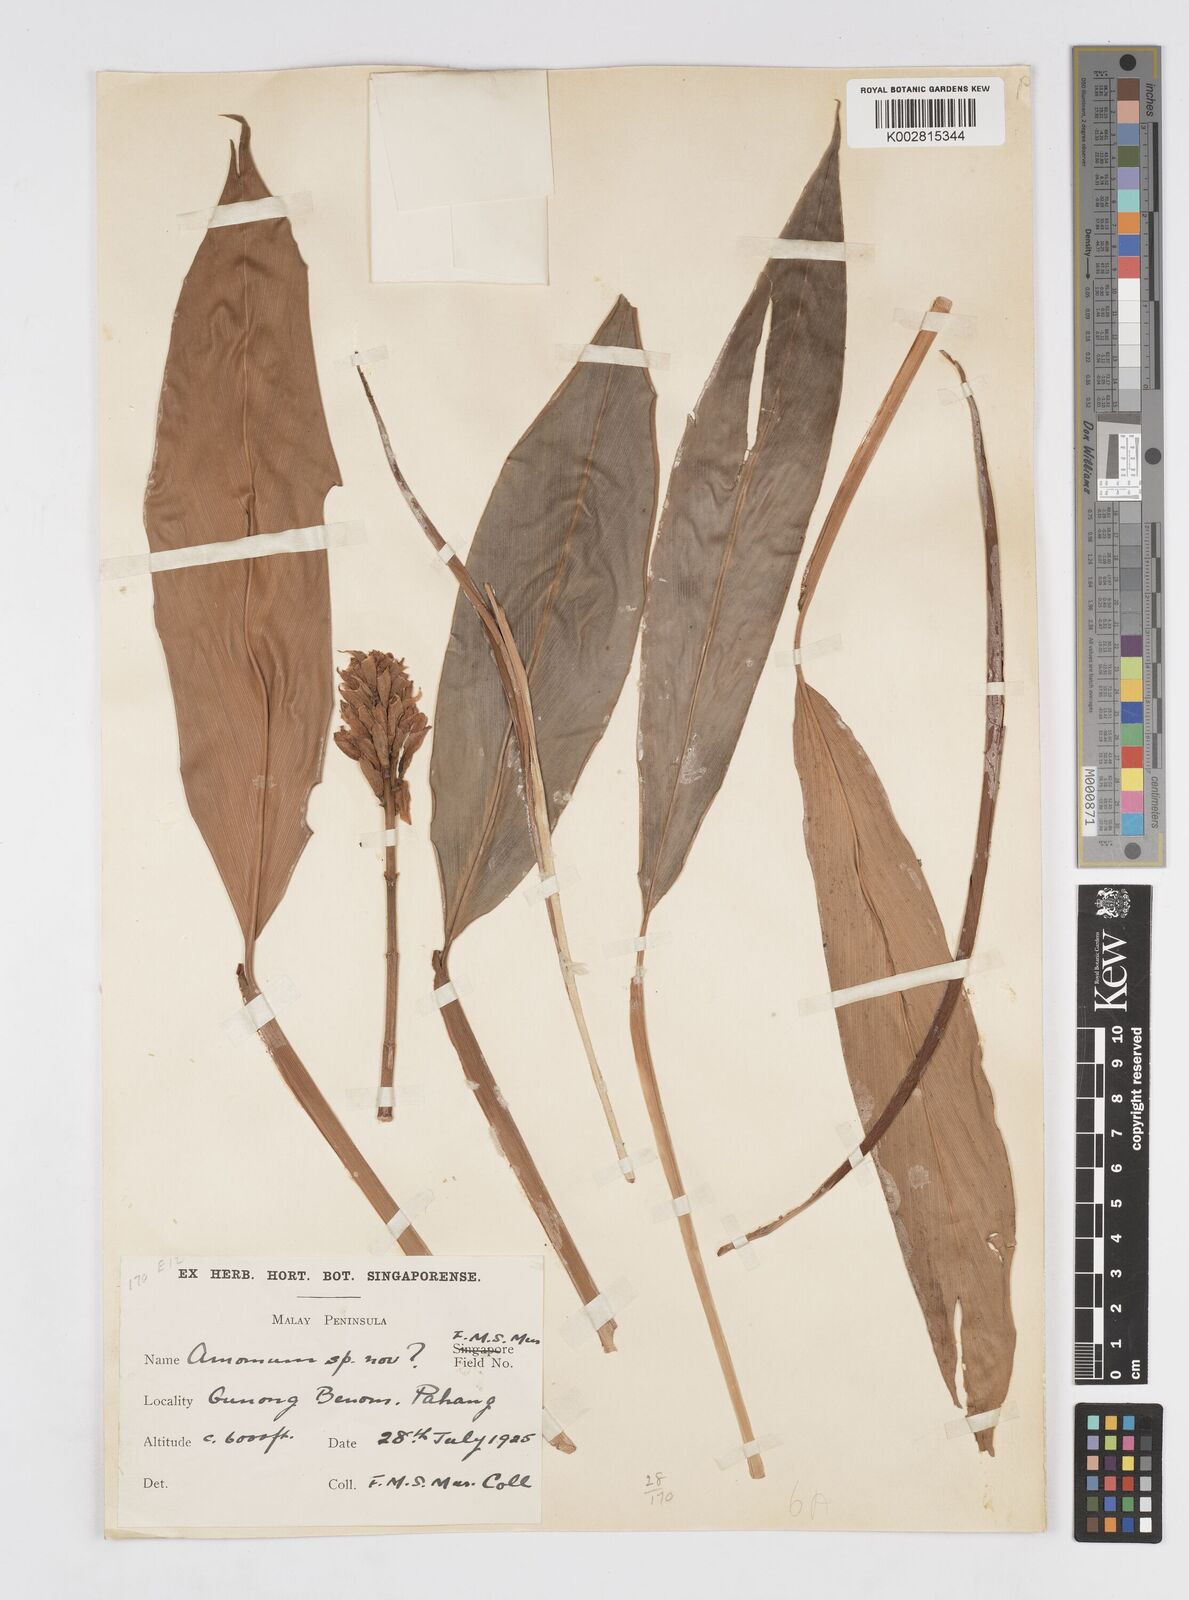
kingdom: Plantae
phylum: Tracheophyta
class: Liliopsida
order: Zingiberales
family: Zingiberaceae
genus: Alpinia
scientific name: Alpinia
